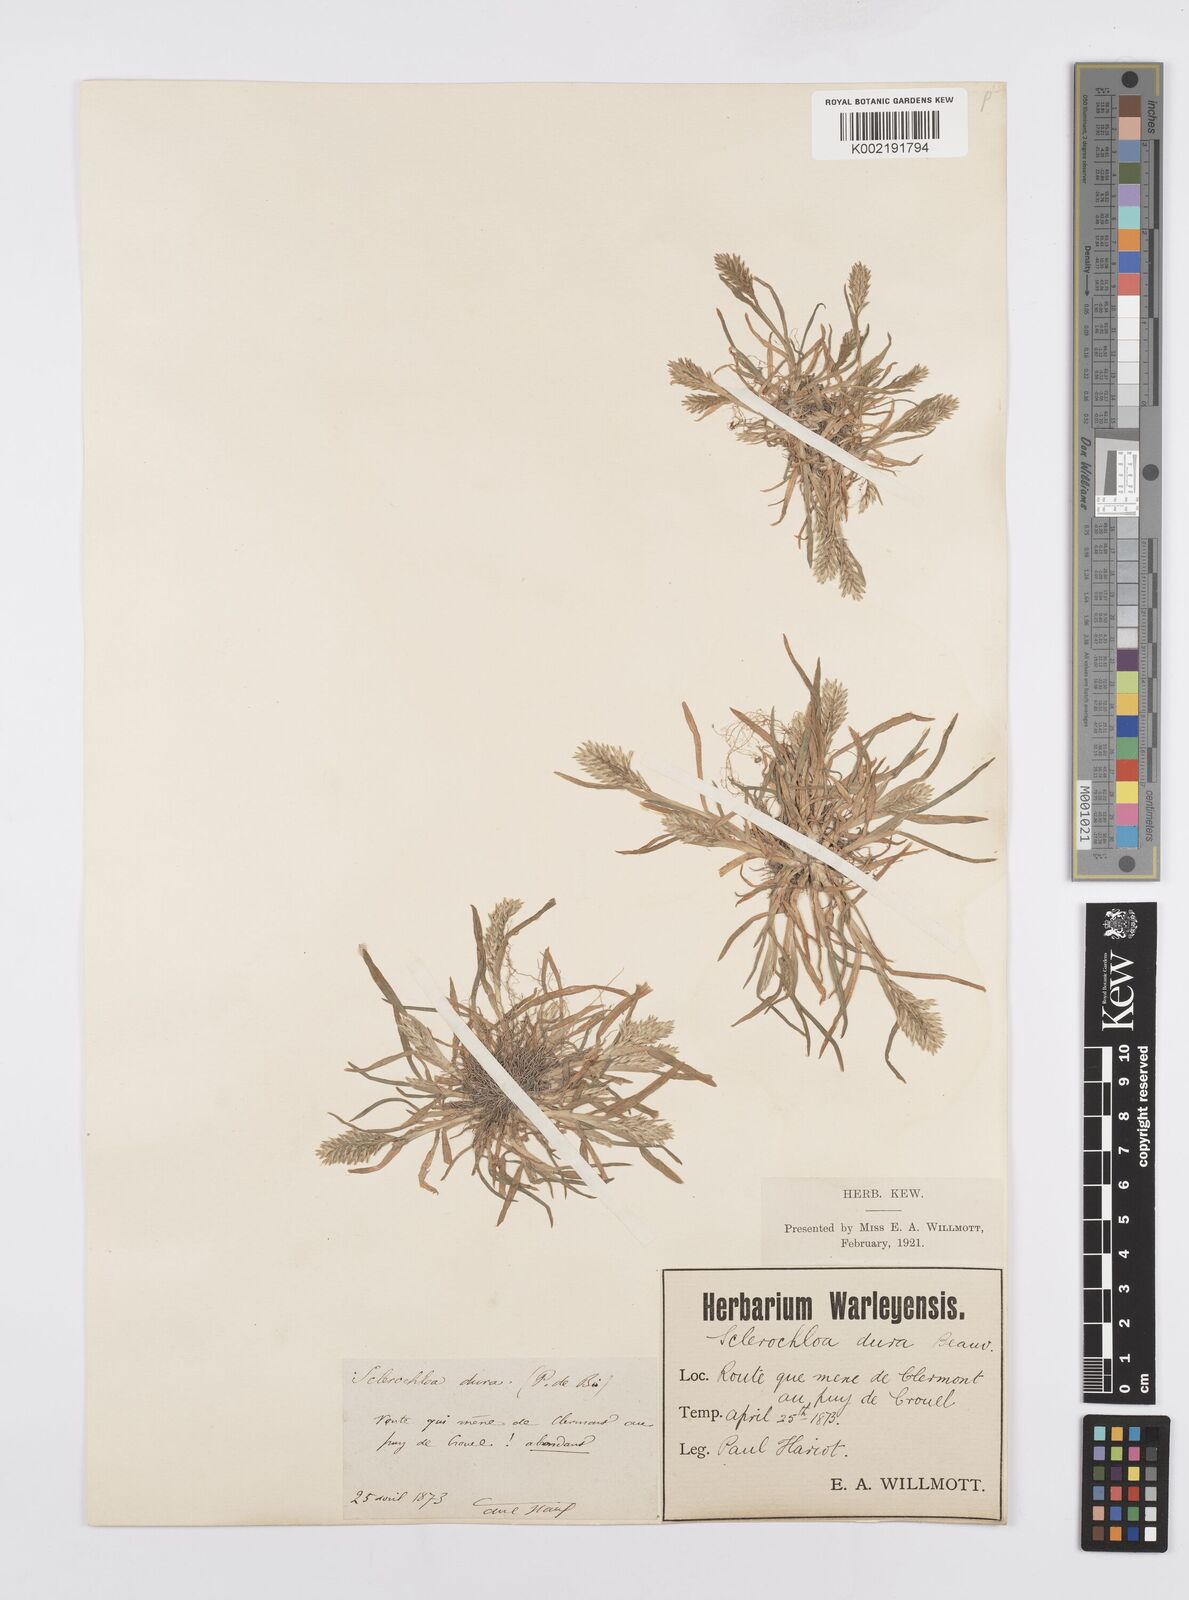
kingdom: Plantae
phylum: Tracheophyta
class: Liliopsida
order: Poales
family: Poaceae
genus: Sclerochloa
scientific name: Sclerochloa dura
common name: Common hardgrass
